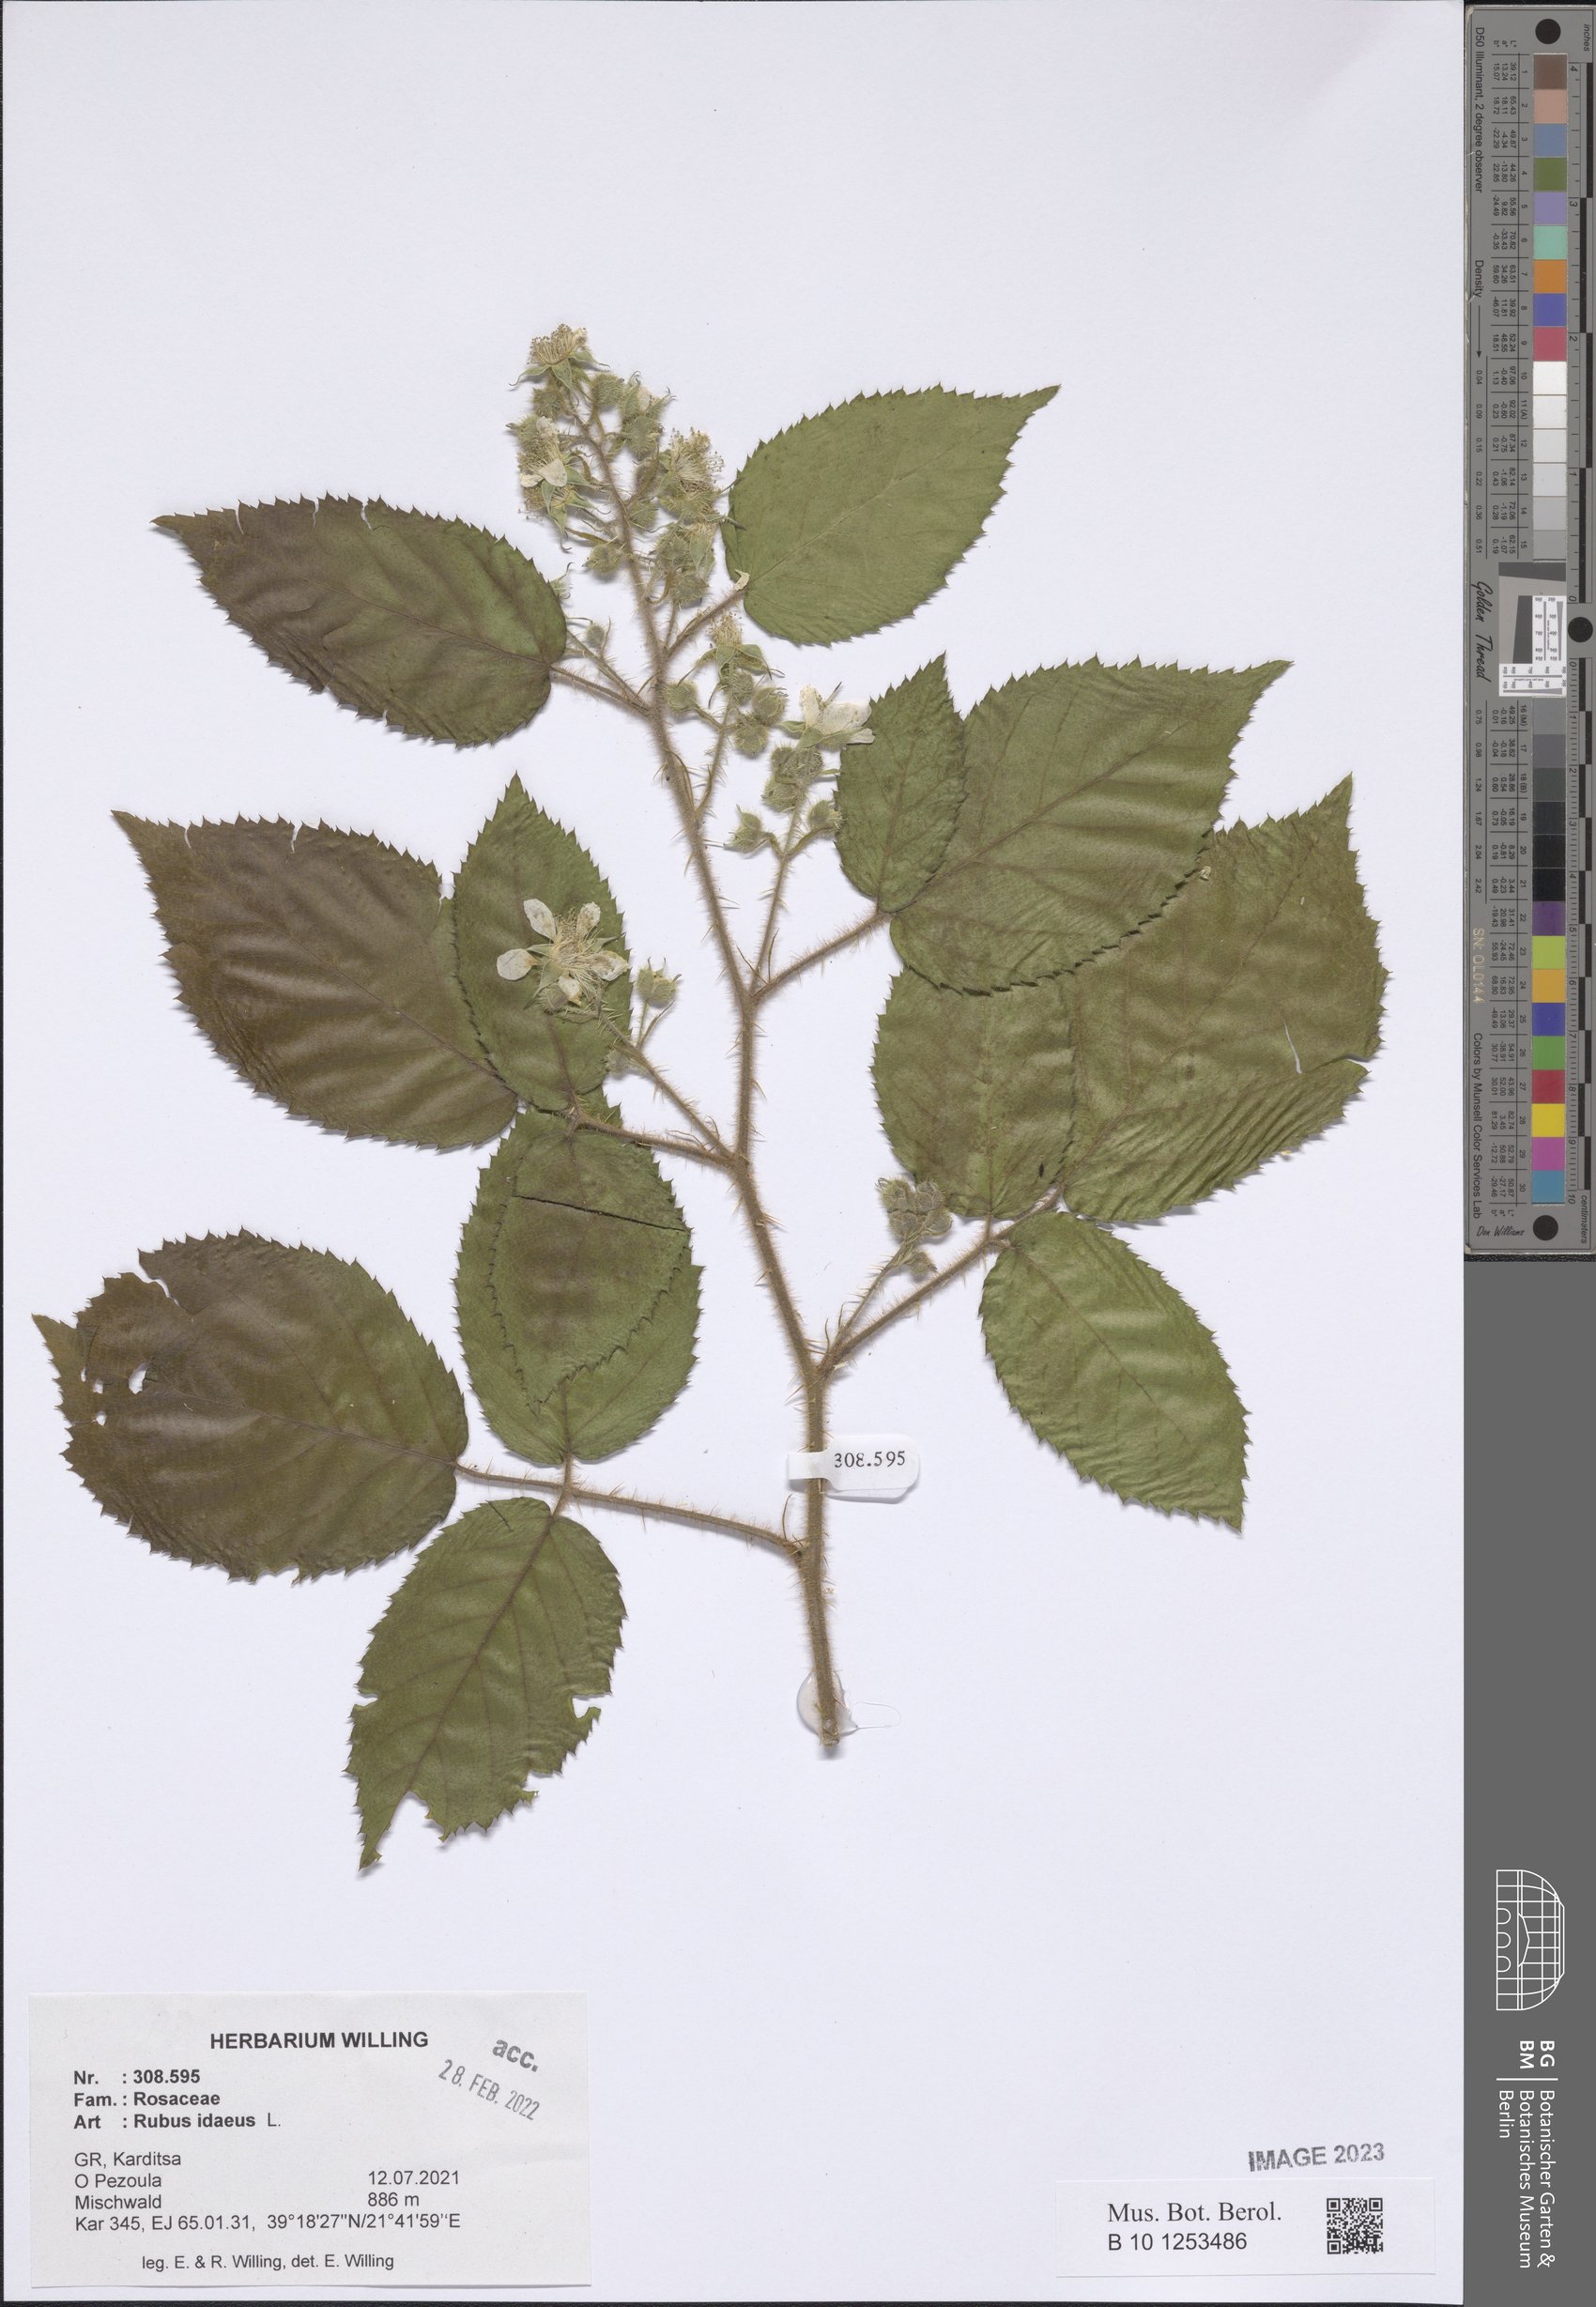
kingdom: Plantae
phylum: Tracheophyta
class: Magnoliopsida
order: Rosales
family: Rosaceae
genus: Rubus
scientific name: Rubus idaeus
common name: Raspberry
